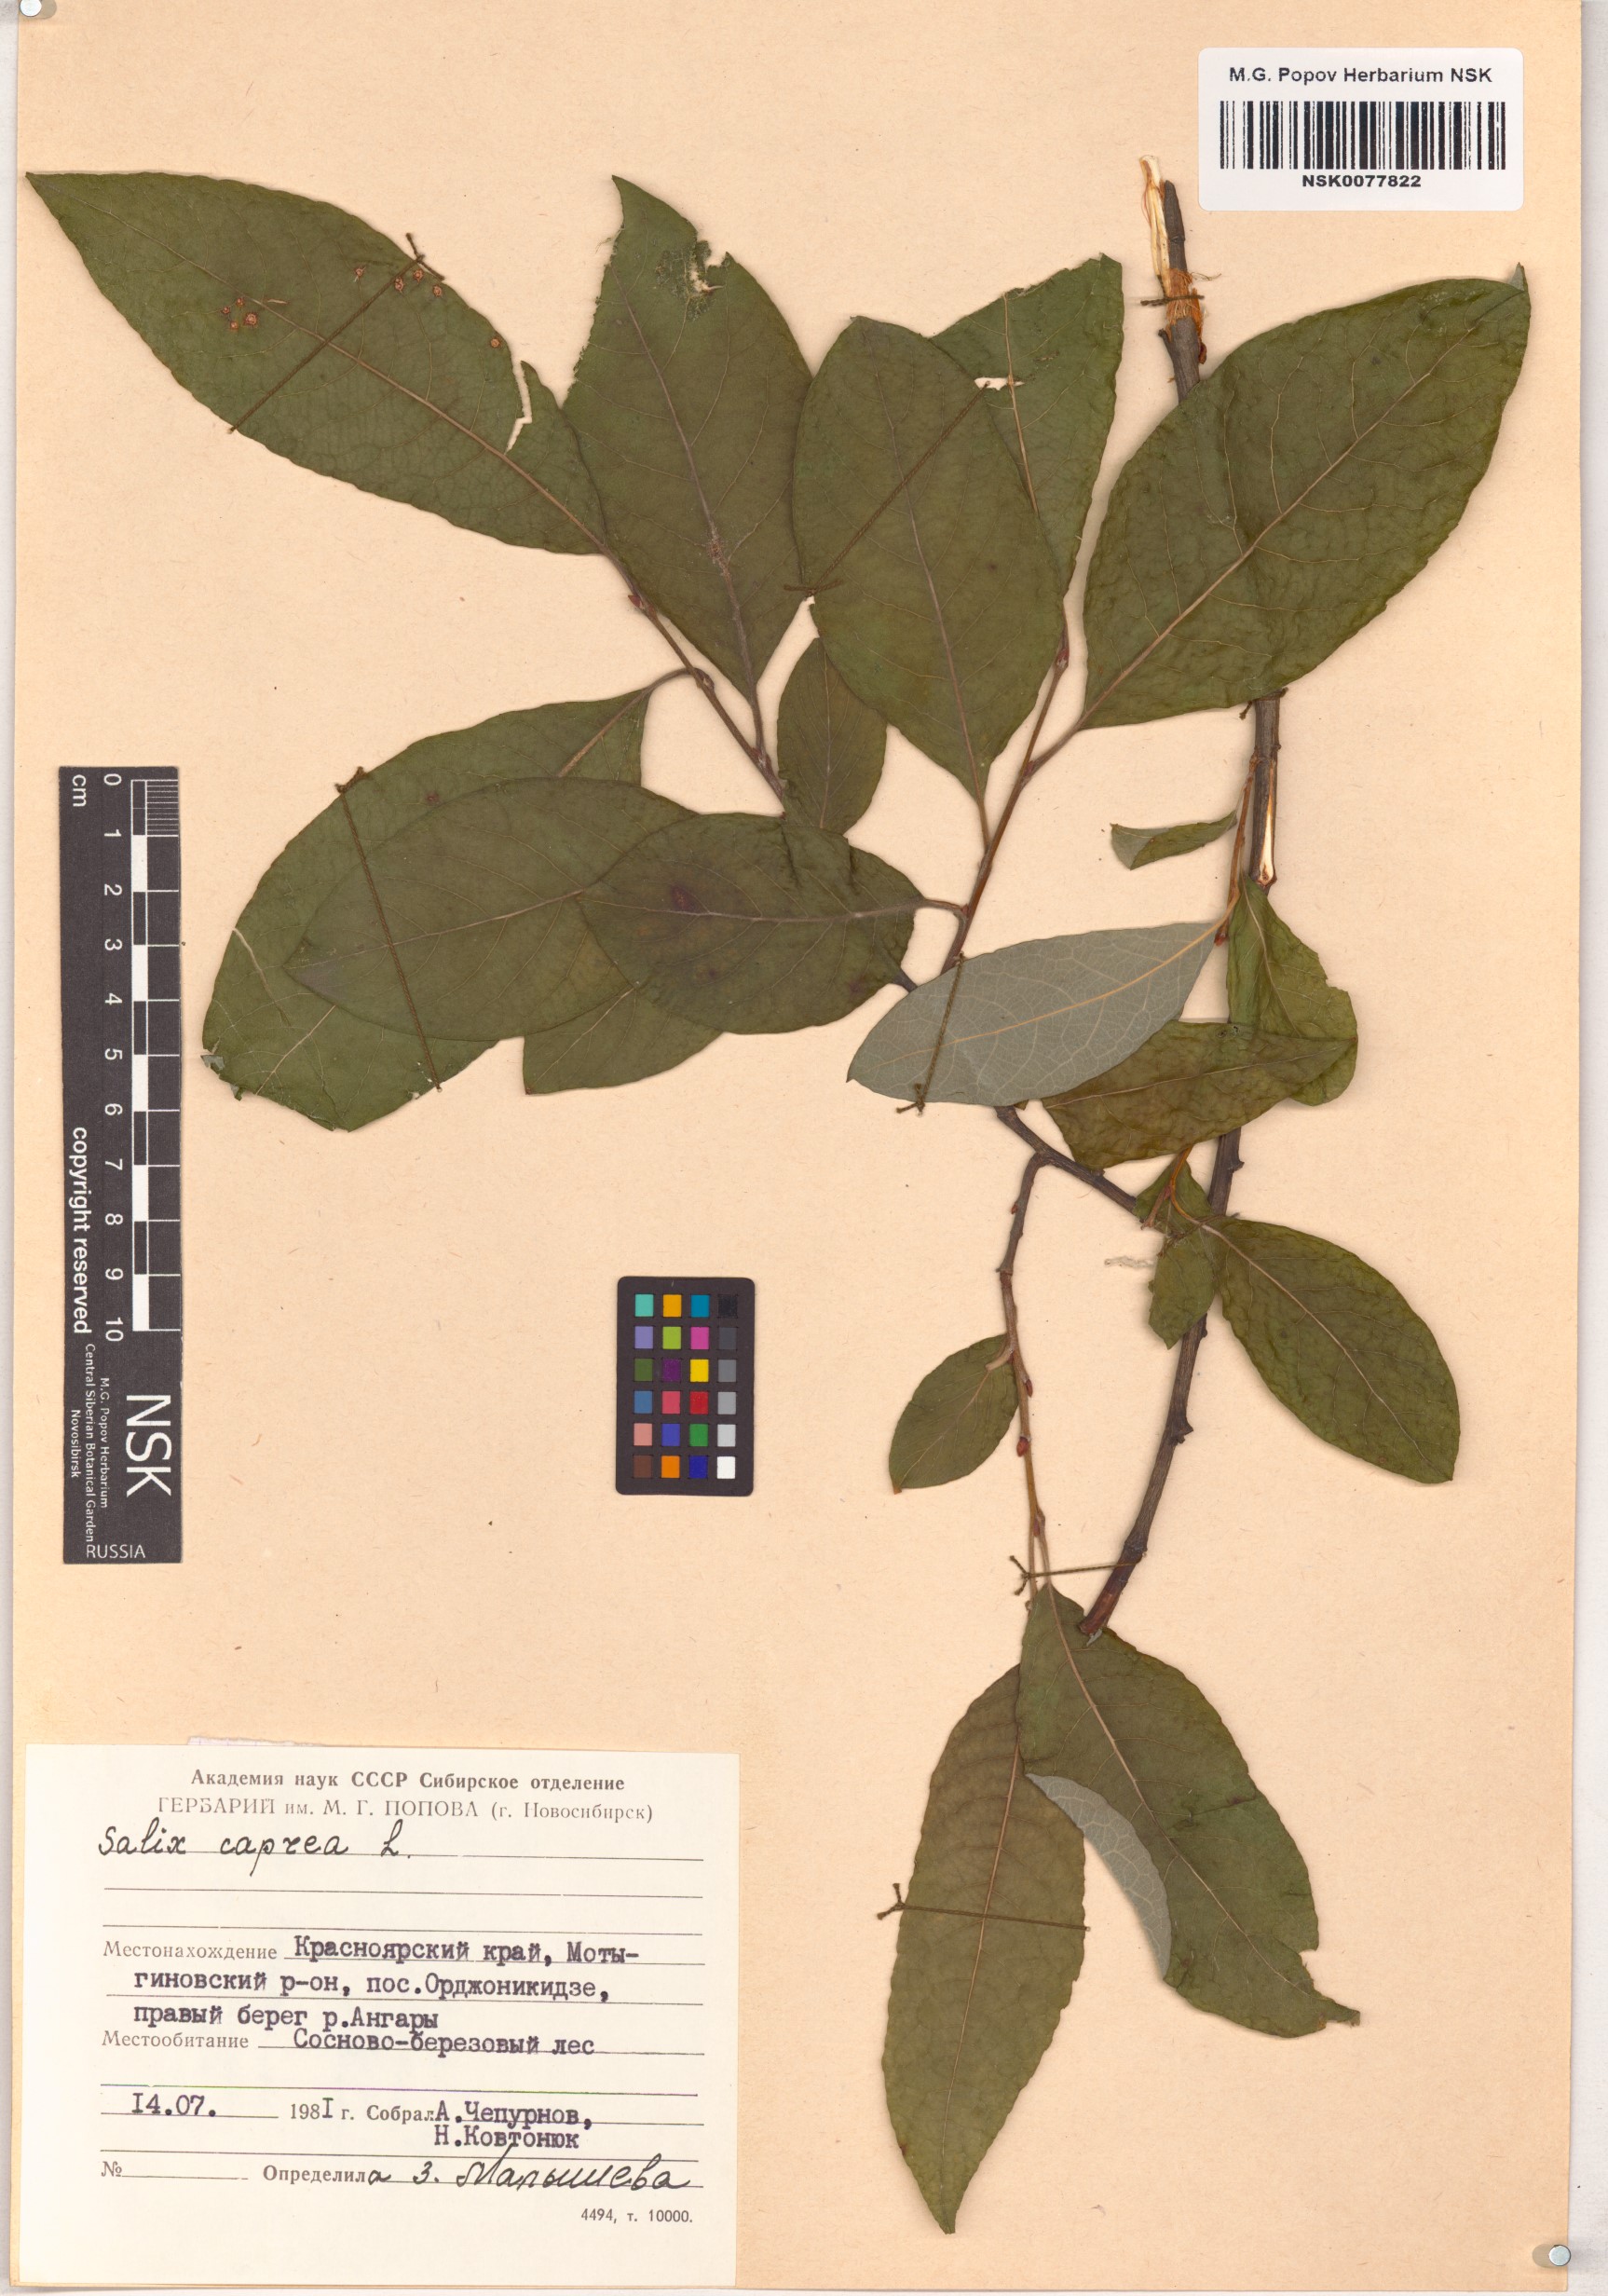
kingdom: Plantae
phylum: Tracheophyta
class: Magnoliopsida
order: Malpighiales
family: Salicaceae
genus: Salix
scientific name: Salix caprea
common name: Goat willow
